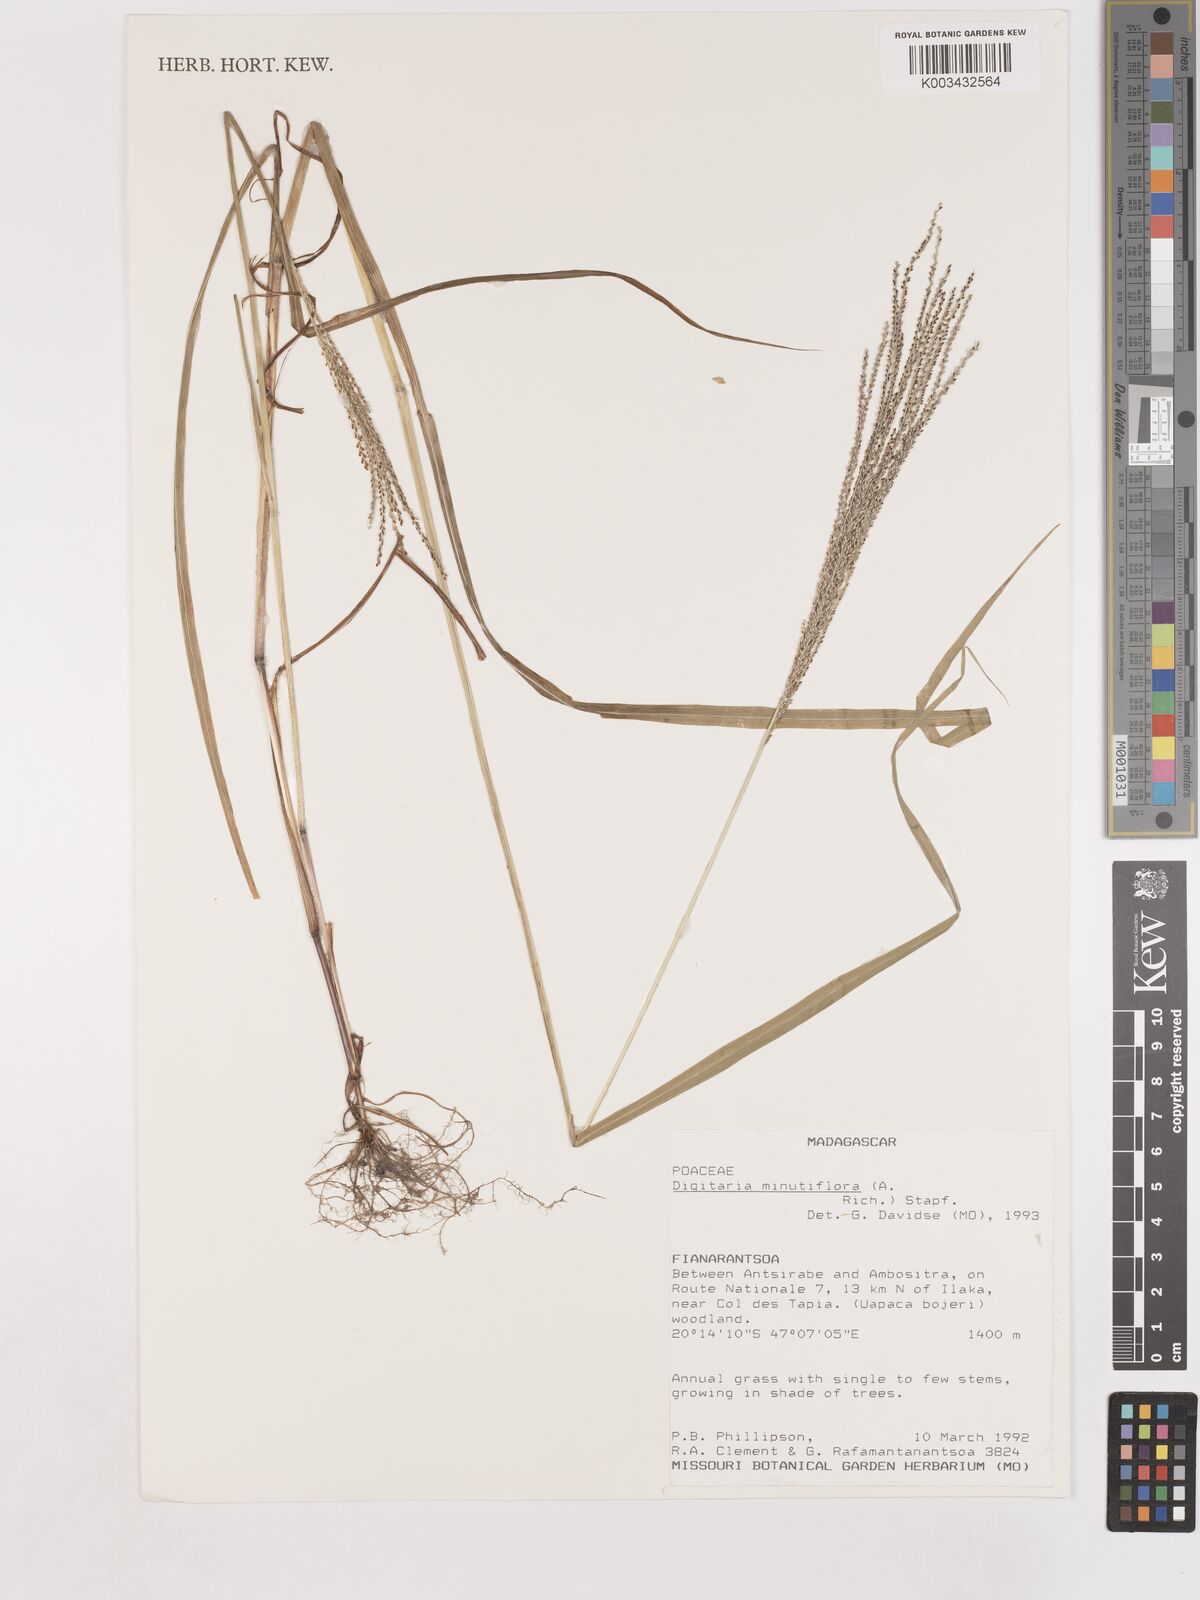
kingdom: Plantae
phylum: Tracheophyta
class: Liliopsida
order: Poales
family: Poaceae
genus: Digitaria
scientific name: Digitaria pseudodiagonalis
